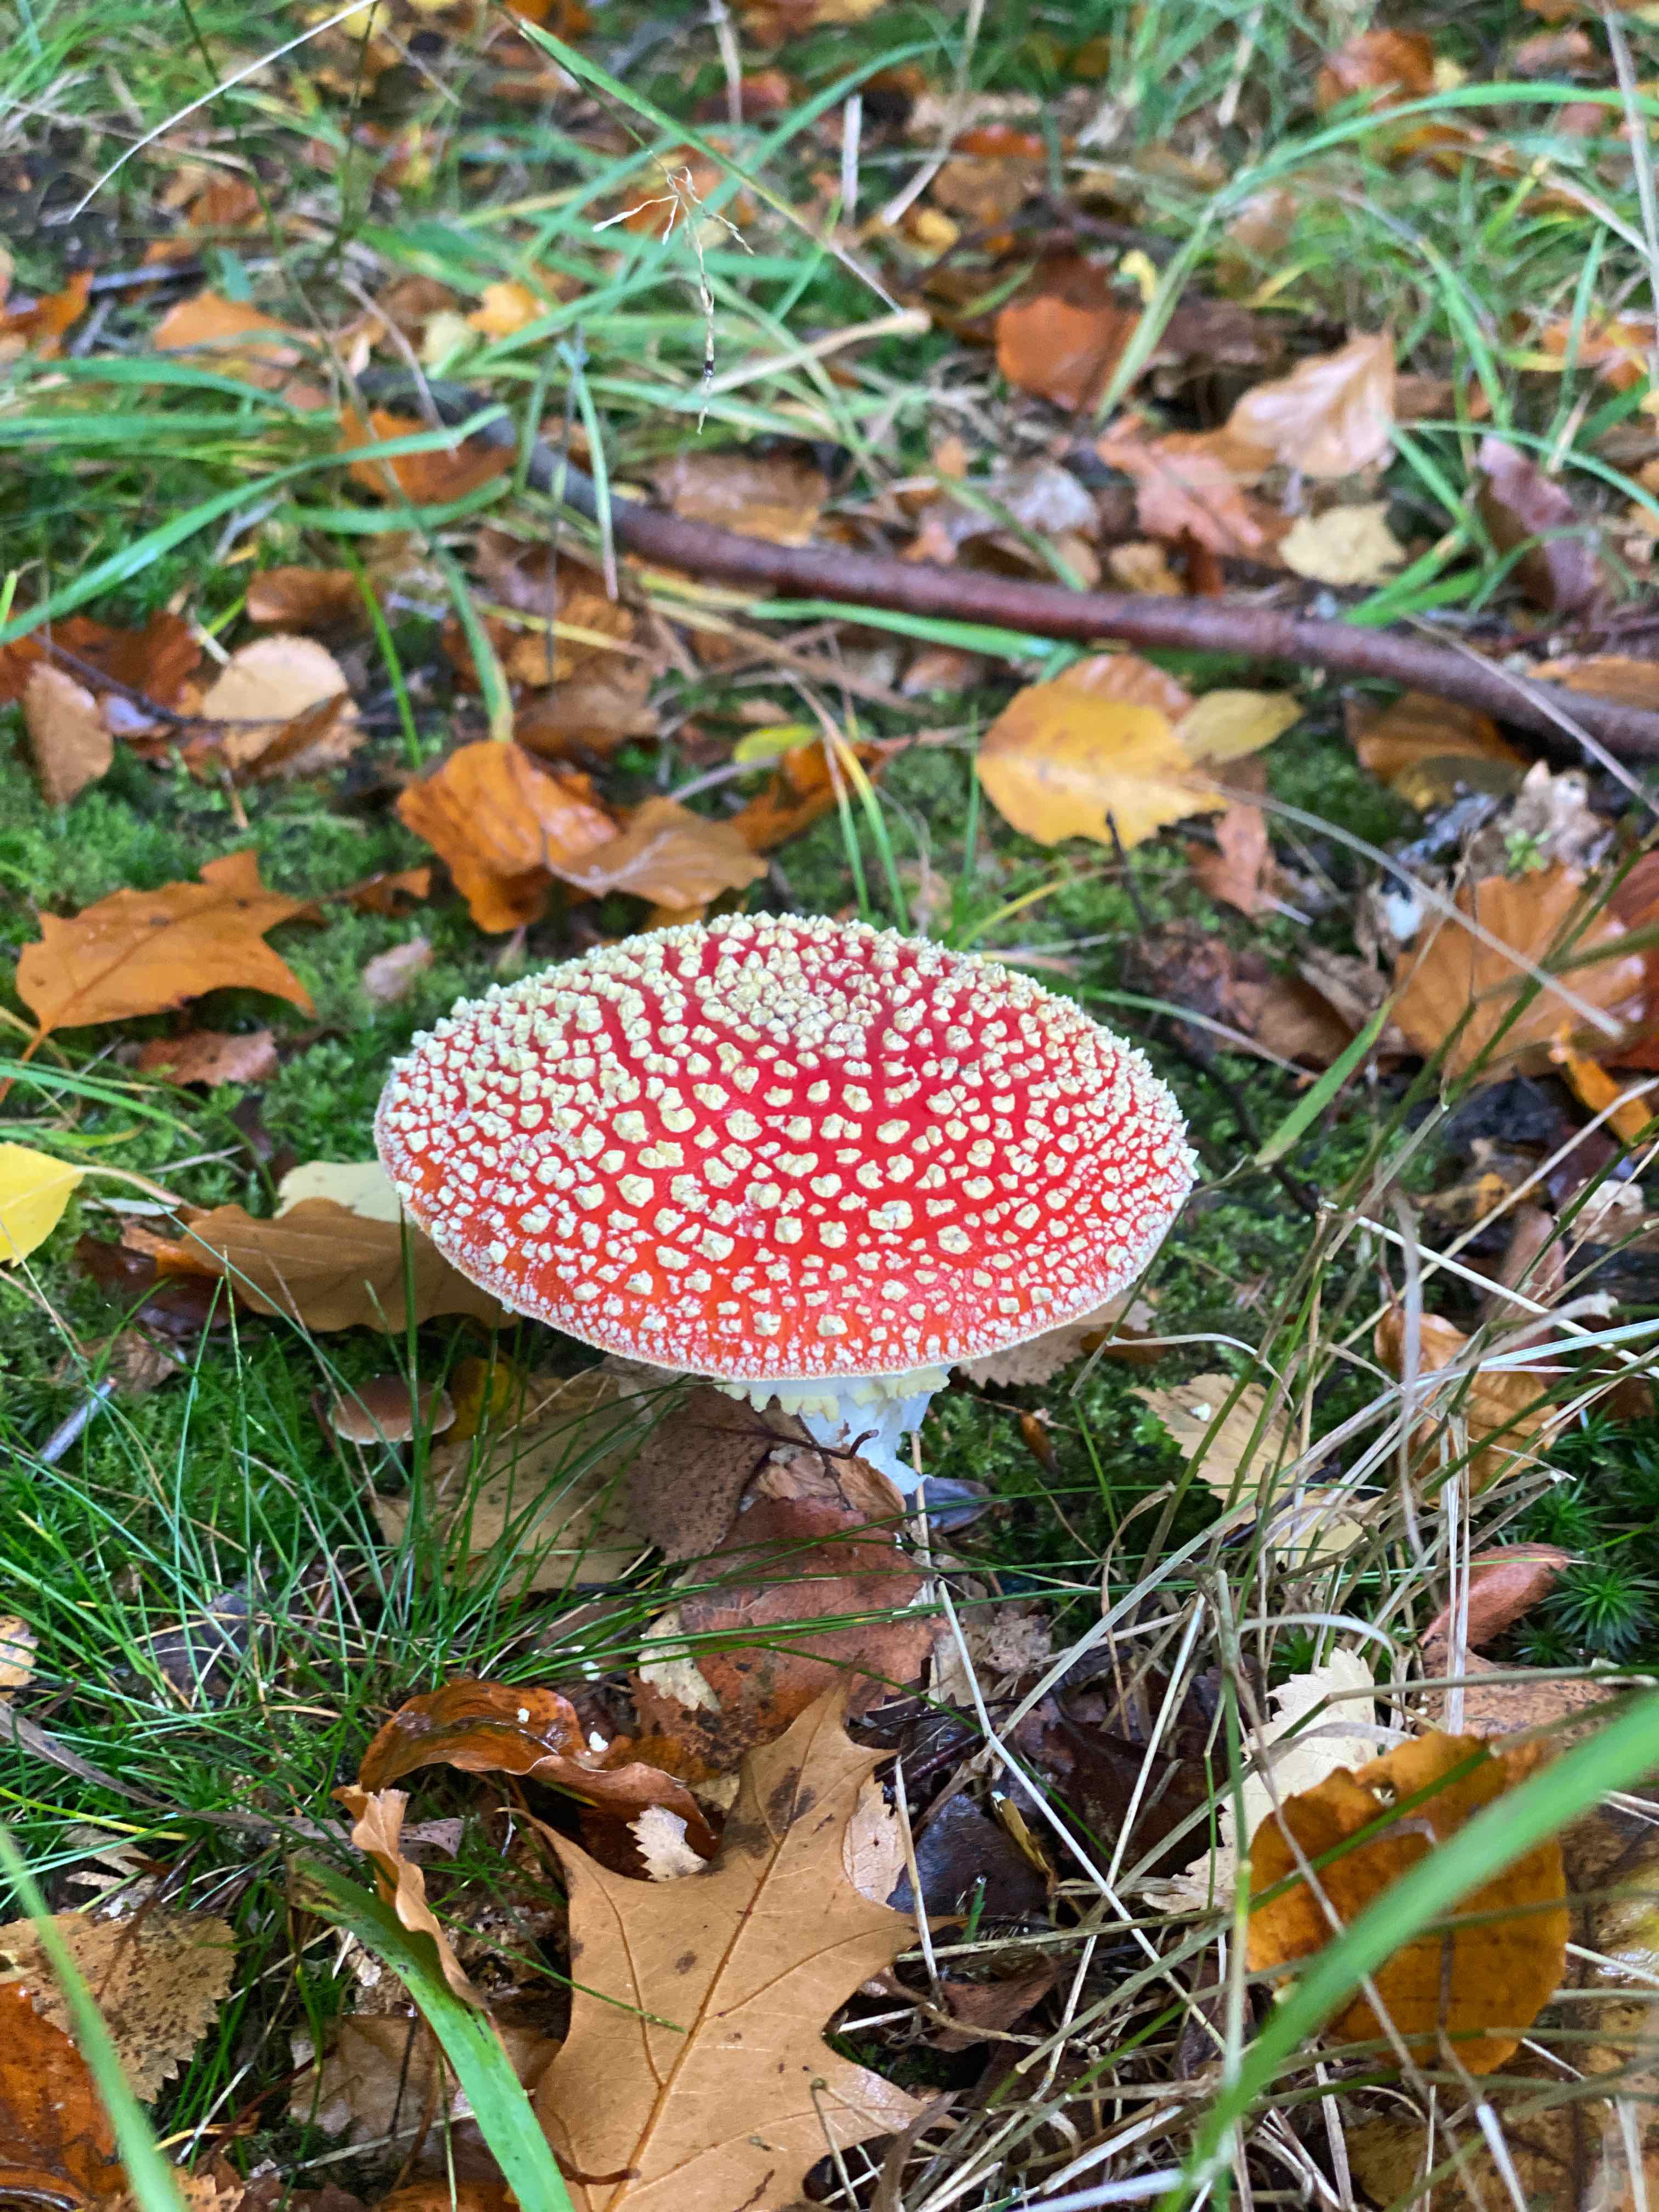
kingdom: Fungi
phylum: Basidiomycota
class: Agaricomycetes
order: Agaricales
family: Amanitaceae
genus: Amanita
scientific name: Amanita muscaria
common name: rød fluesvamp
